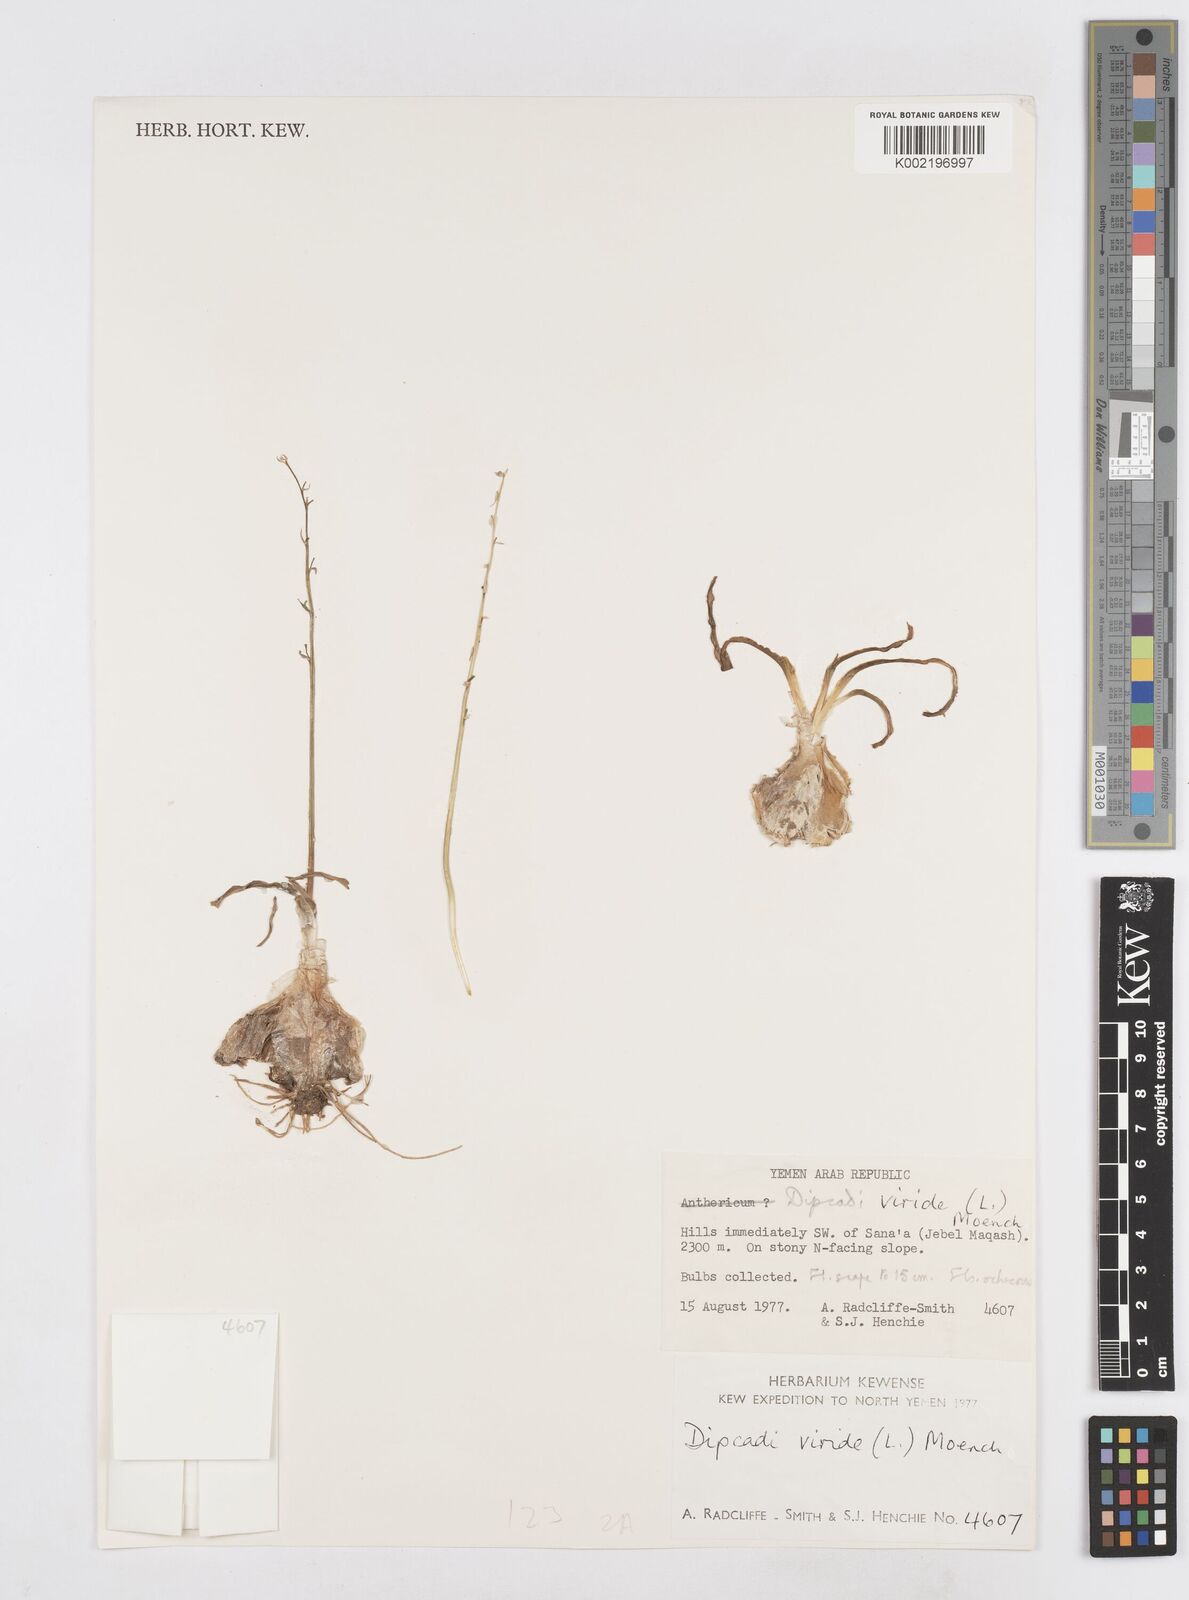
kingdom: Plantae
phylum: Tracheophyta
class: Liliopsida
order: Asparagales
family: Asparagaceae
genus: Dipcadi
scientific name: Dipcadi viride
